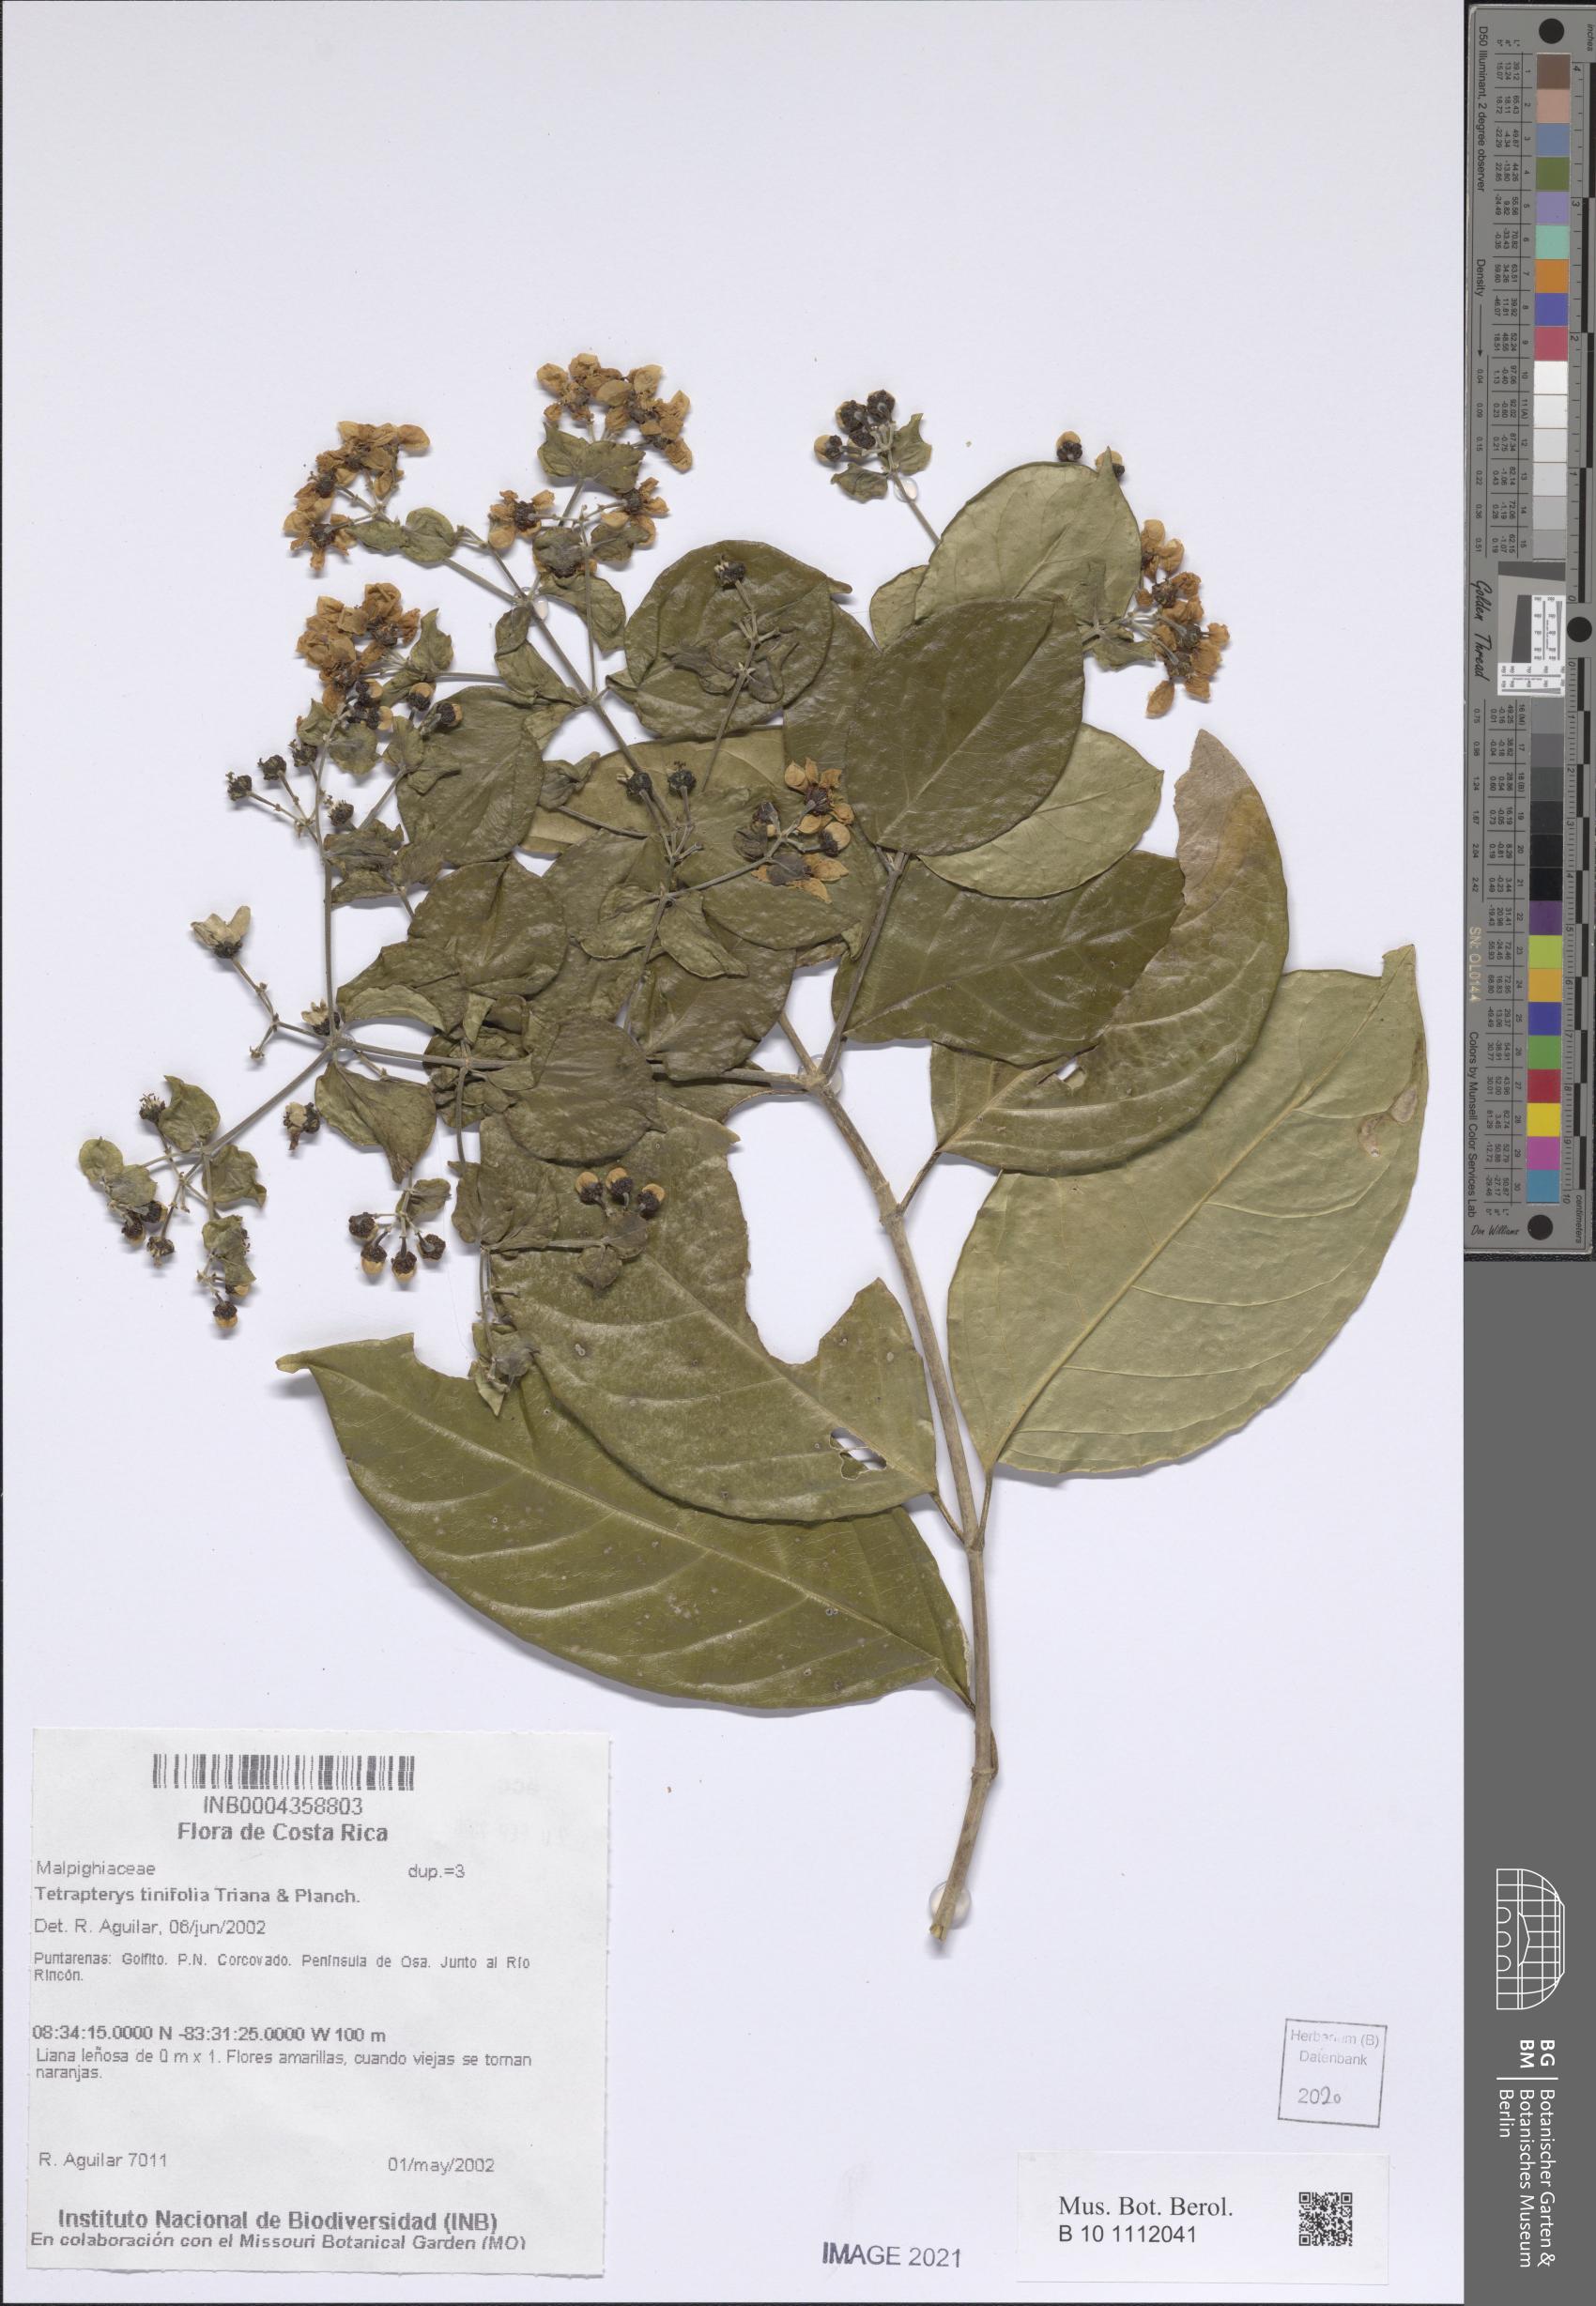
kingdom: Plantae
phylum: Tracheophyta
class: Magnoliopsida
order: Malpighiales
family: Malpighiaceae
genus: Tetrapterys
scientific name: Tetrapterys tinifolia
